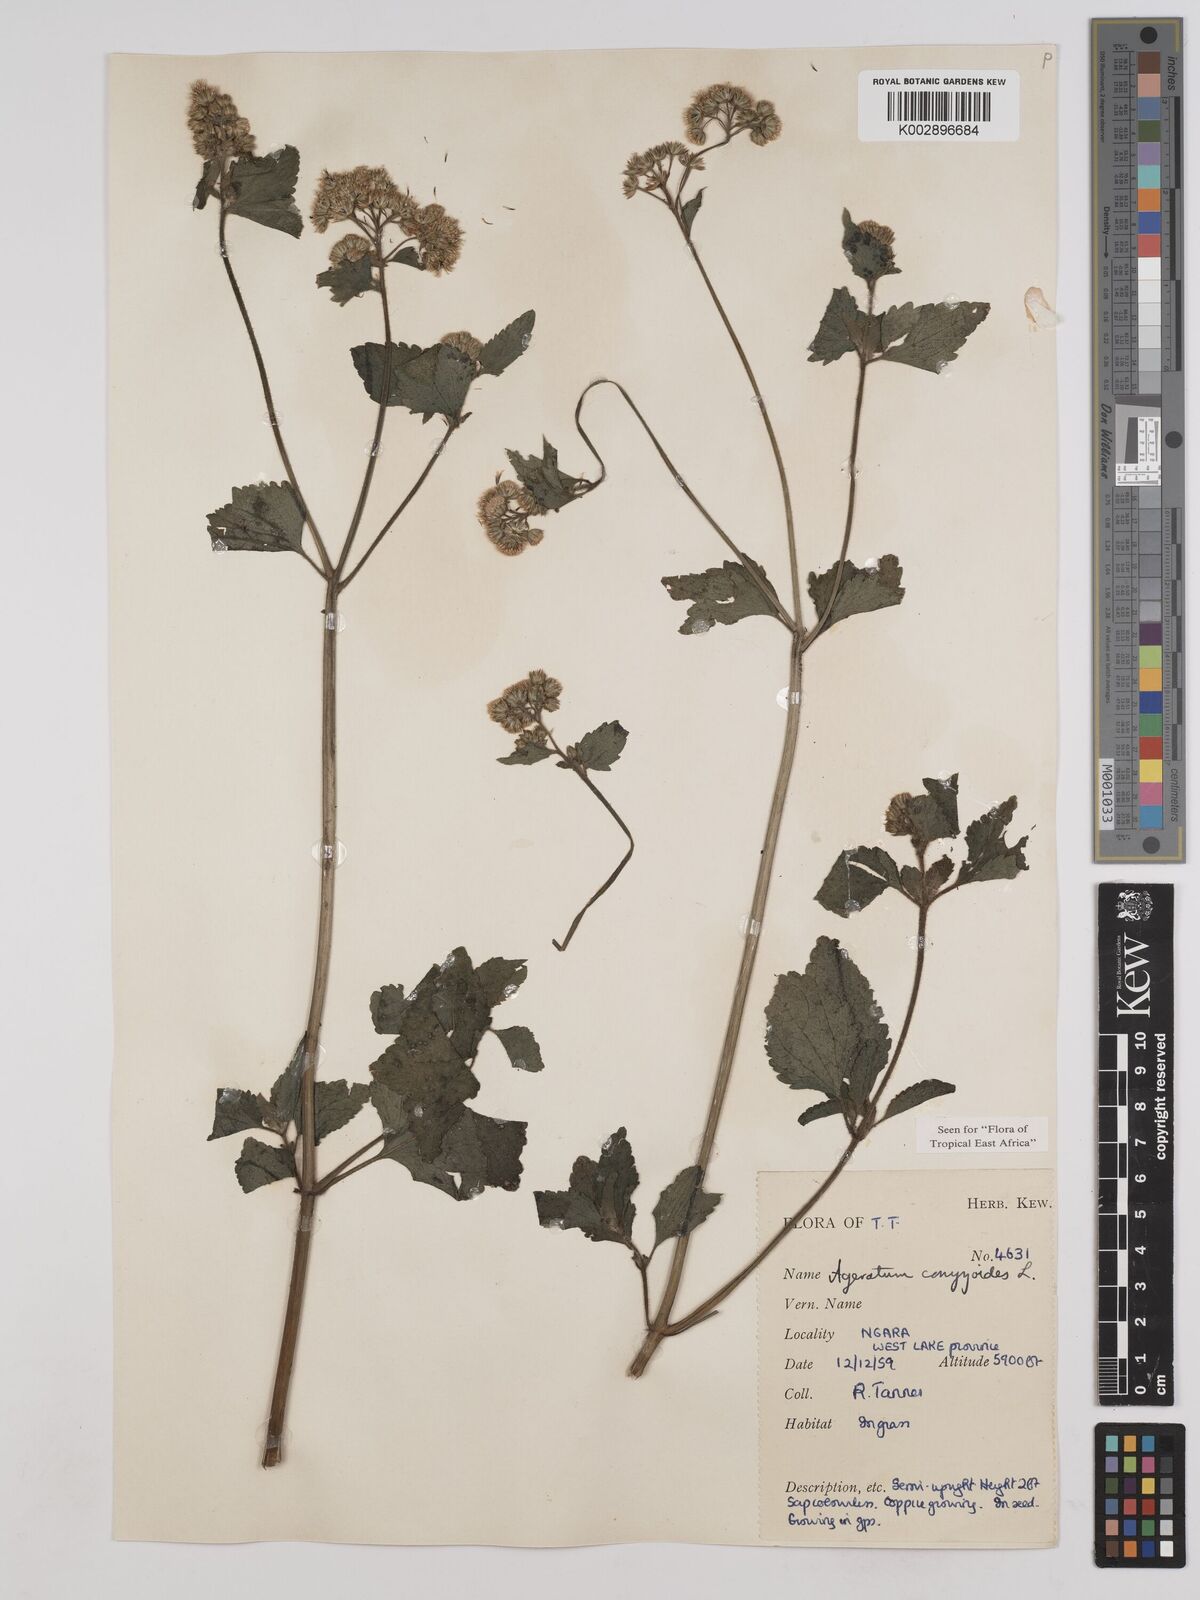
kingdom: Plantae
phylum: Tracheophyta
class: Magnoliopsida
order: Asterales
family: Asteraceae
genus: Ageratum
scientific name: Ageratum conyzoides
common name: Tropical whiteweed
